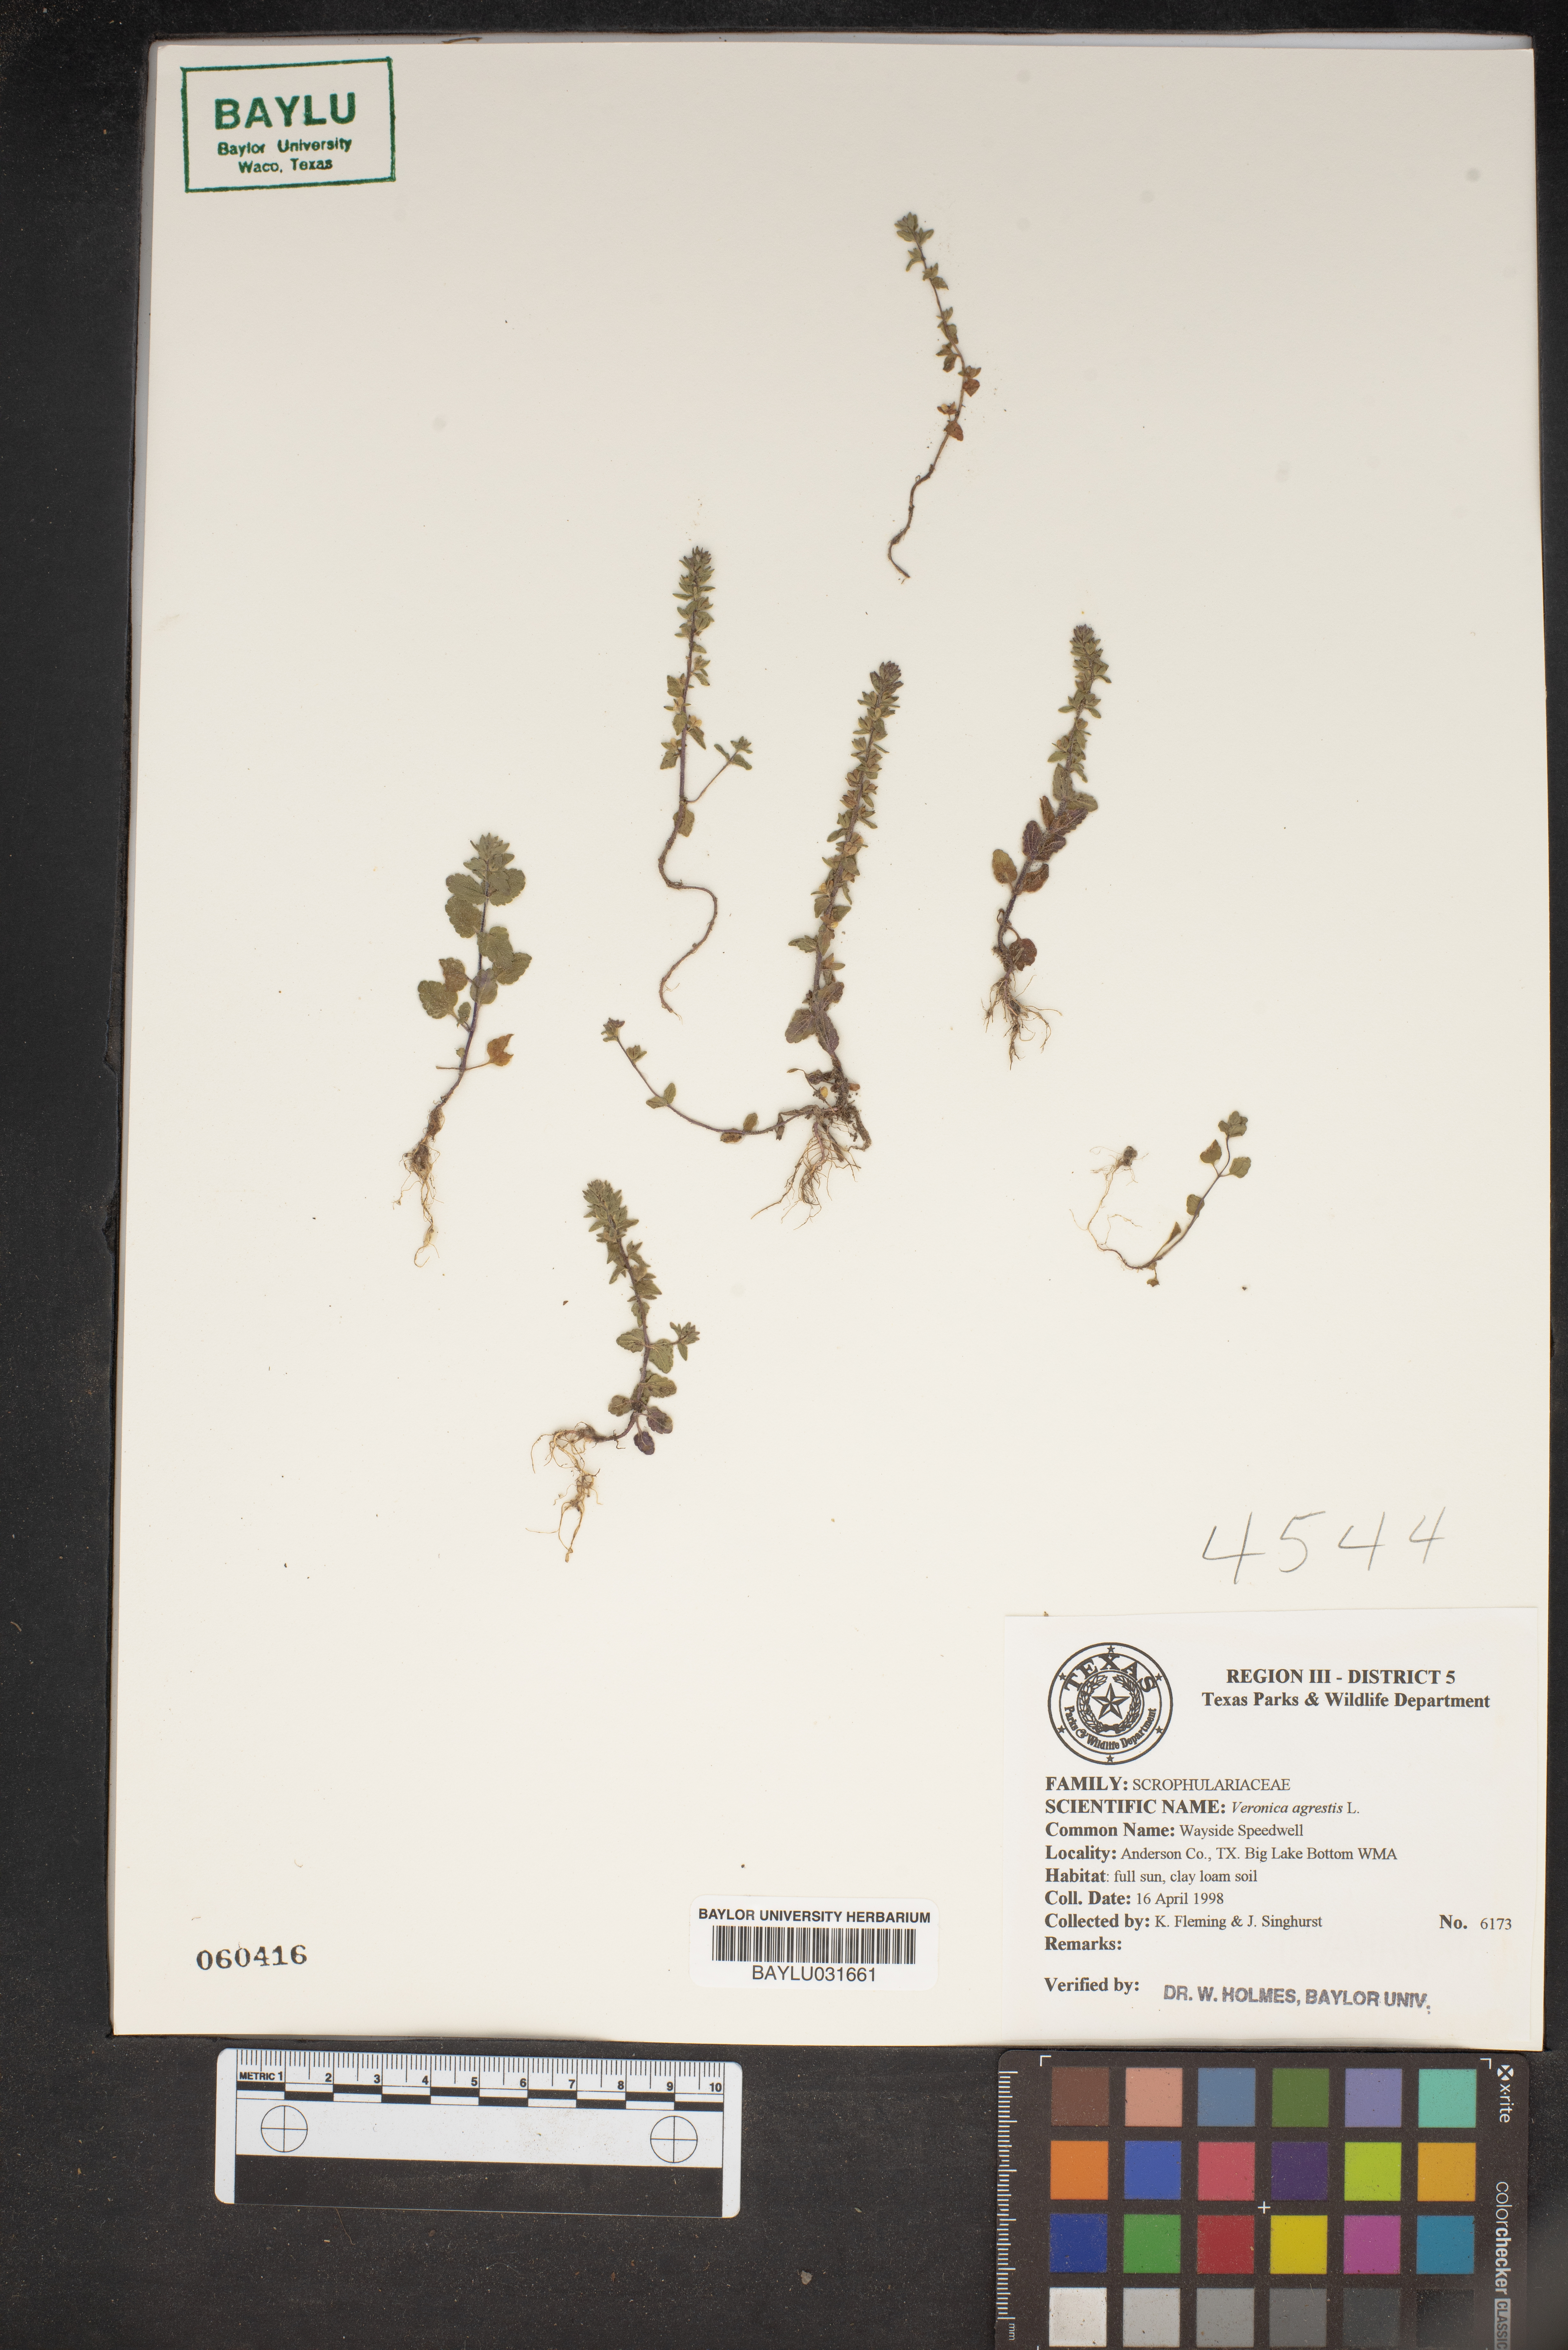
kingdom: Plantae
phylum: Tracheophyta
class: Magnoliopsida
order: Lamiales
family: Plantaginaceae
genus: Veronica
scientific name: Veronica agrestis
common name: Green field-speedwell
